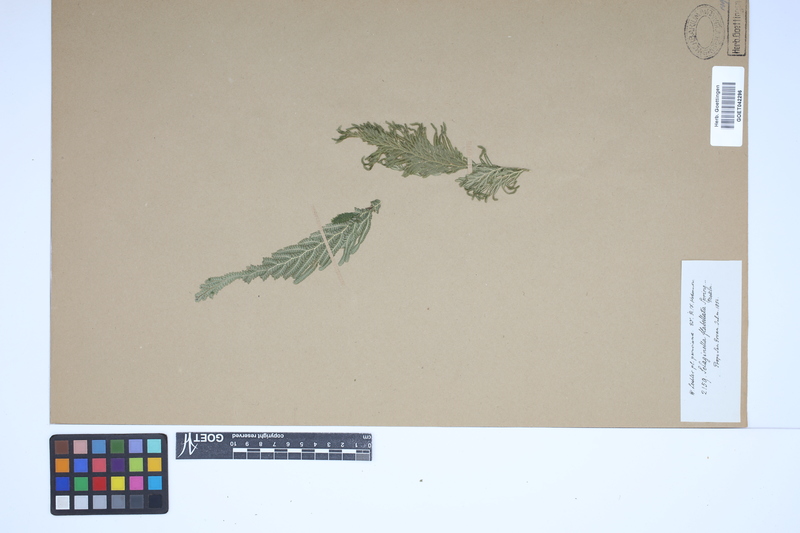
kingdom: Plantae
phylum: Tracheophyta
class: Lycopodiopsida
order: Selaginellales
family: Selaginellaceae
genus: Selaginella
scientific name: Selaginella flabellata
